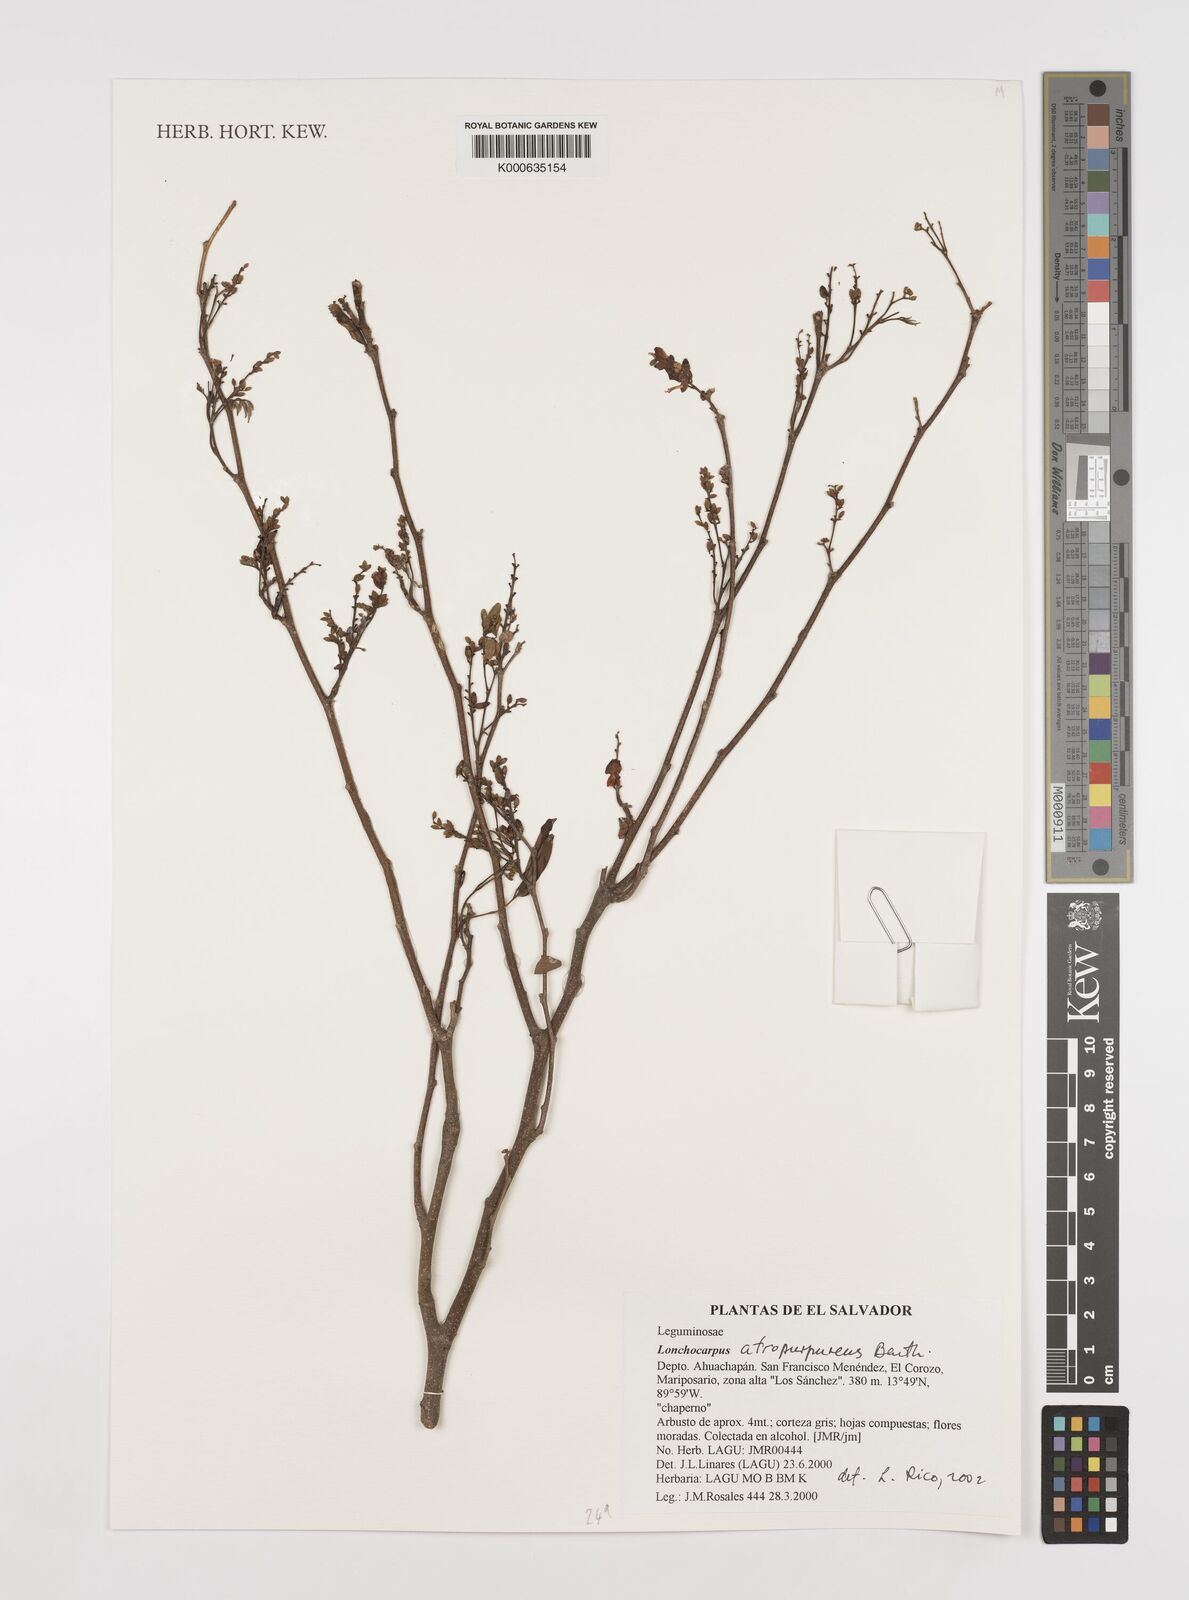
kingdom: Plantae
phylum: Tracheophyta
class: Magnoliopsida
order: Fabales
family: Fabaceae
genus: Lonchocarpus
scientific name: Lonchocarpus atropurpureus
